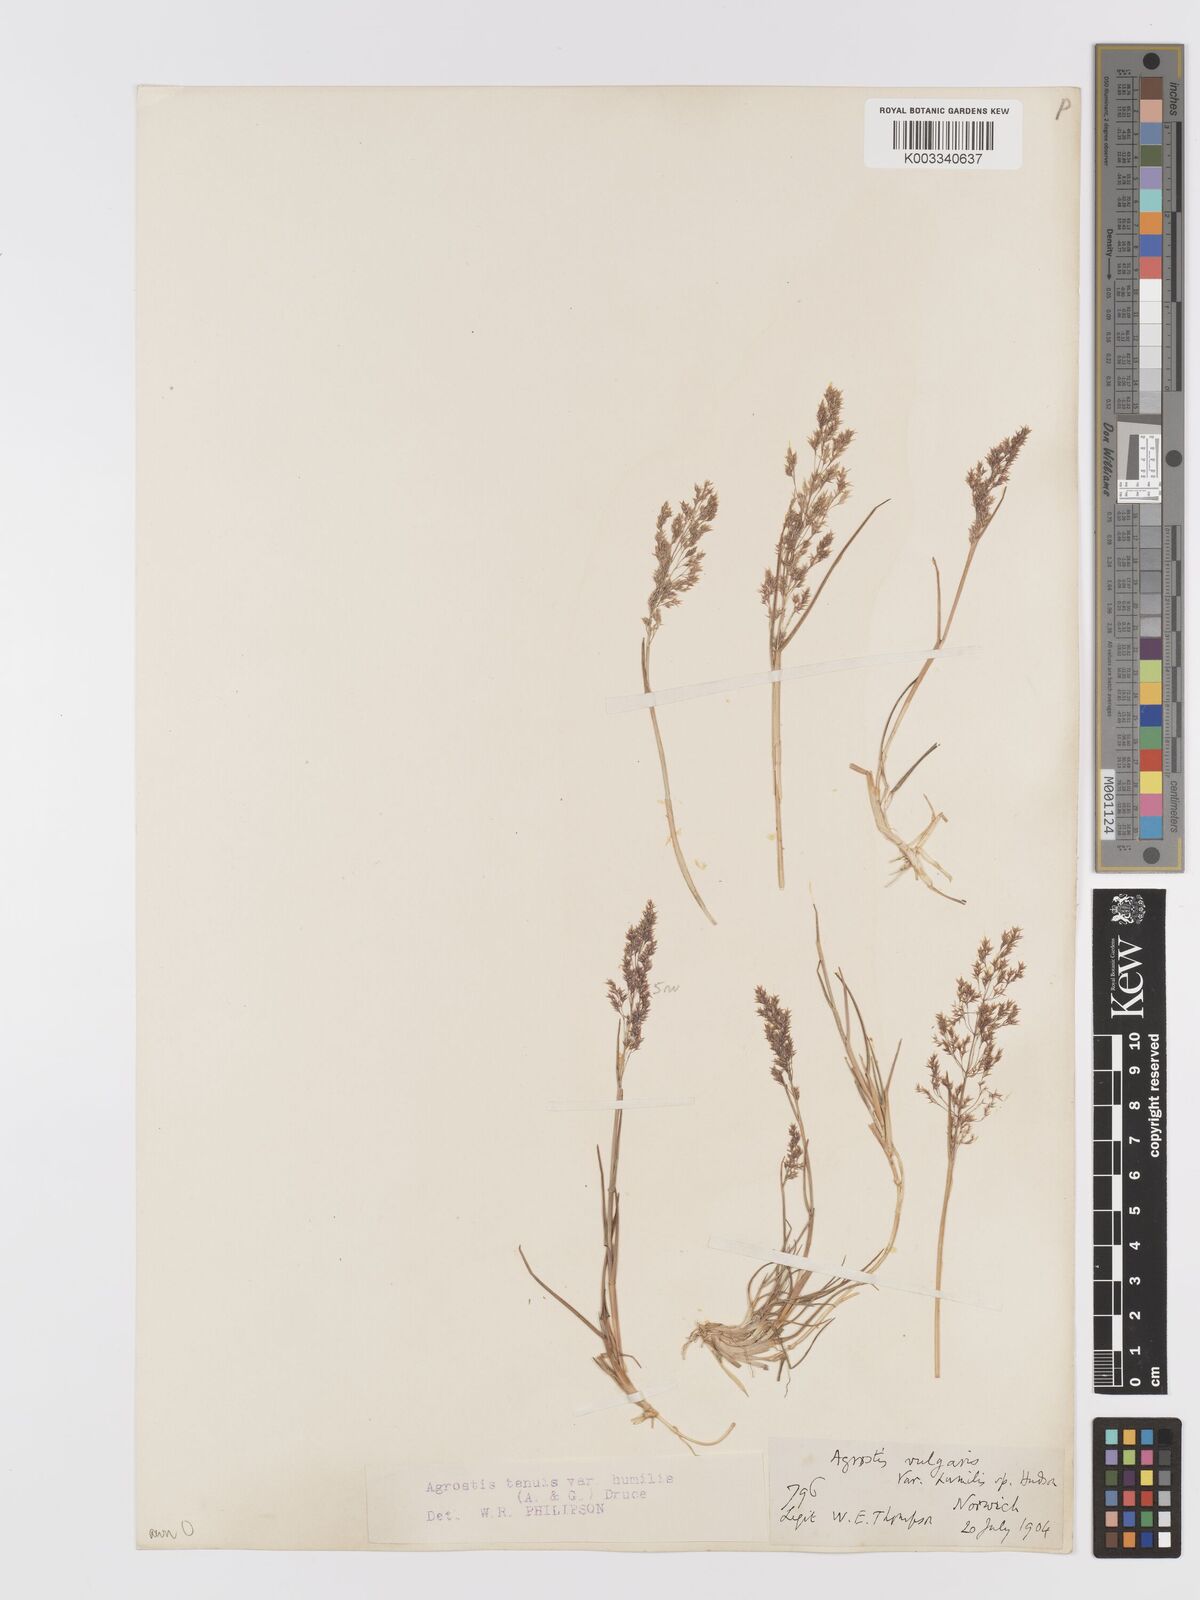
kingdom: Plantae
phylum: Tracheophyta
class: Liliopsida
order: Poales
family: Poaceae
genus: Agrostis
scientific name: Agrostis capillaris
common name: Colonial bentgrass
